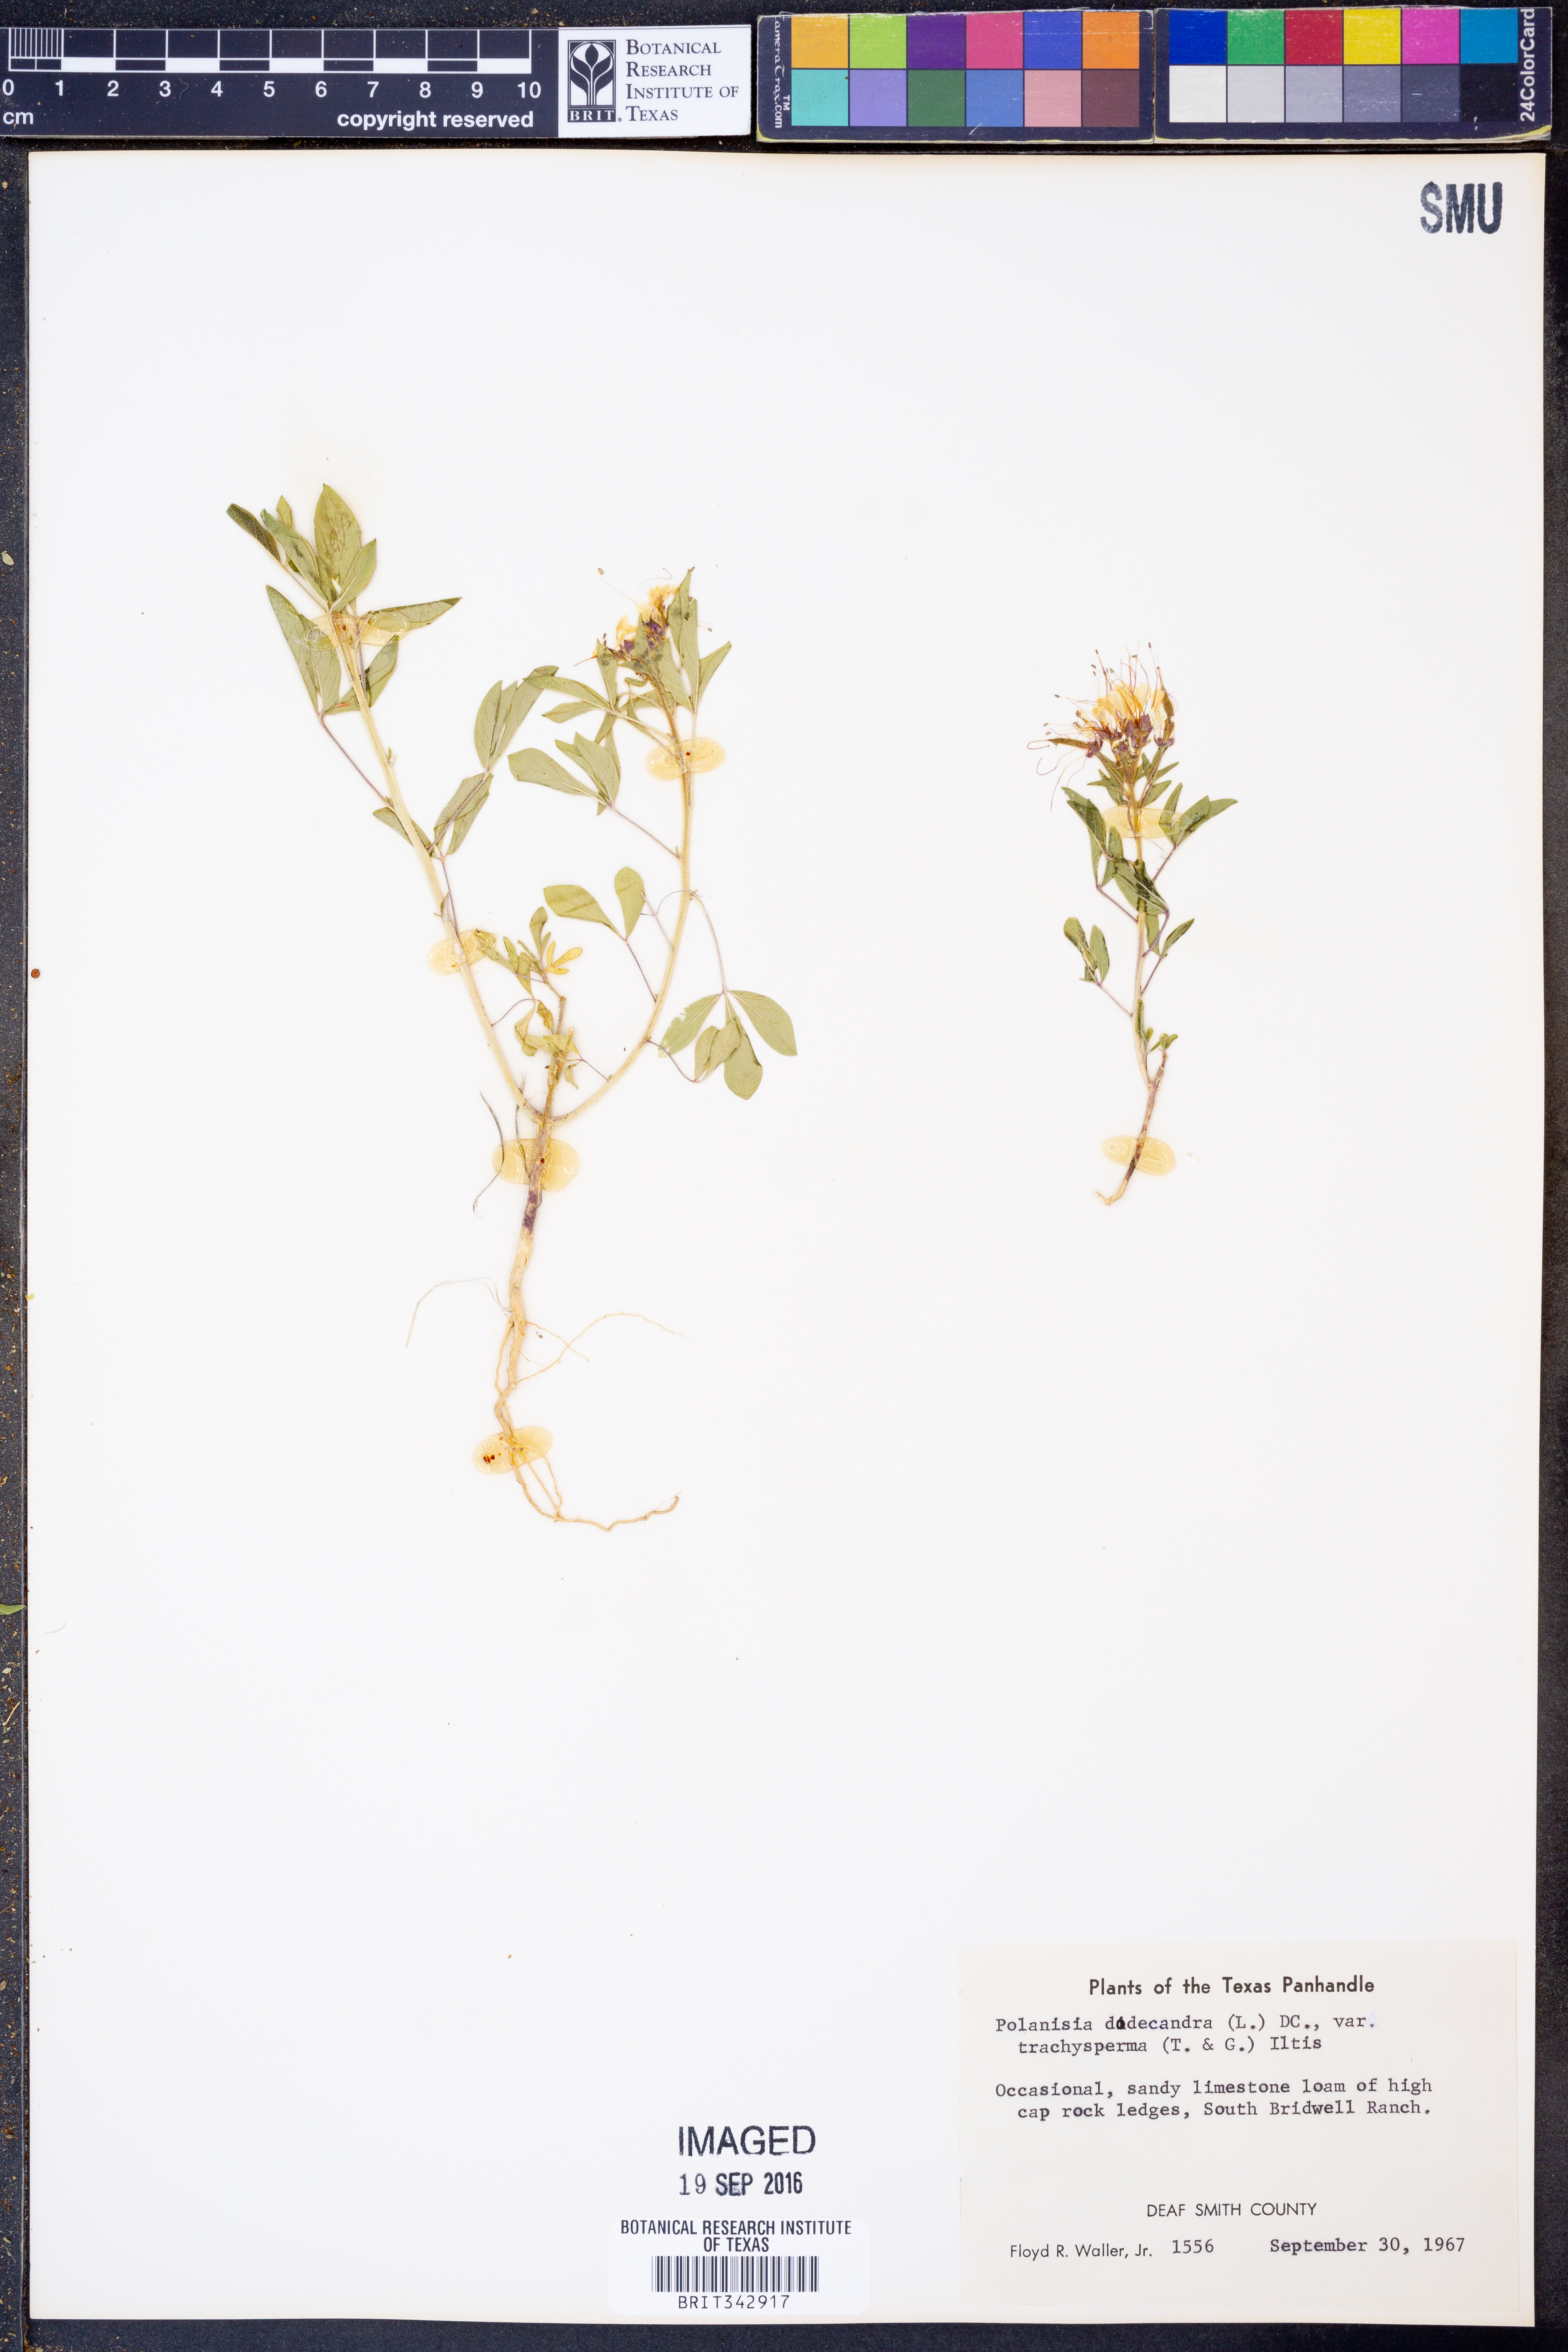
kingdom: Plantae
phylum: Tracheophyta
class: Magnoliopsida
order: Brassicales
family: Cleomaceae
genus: Polanisia
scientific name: Polanisia trachysperma
